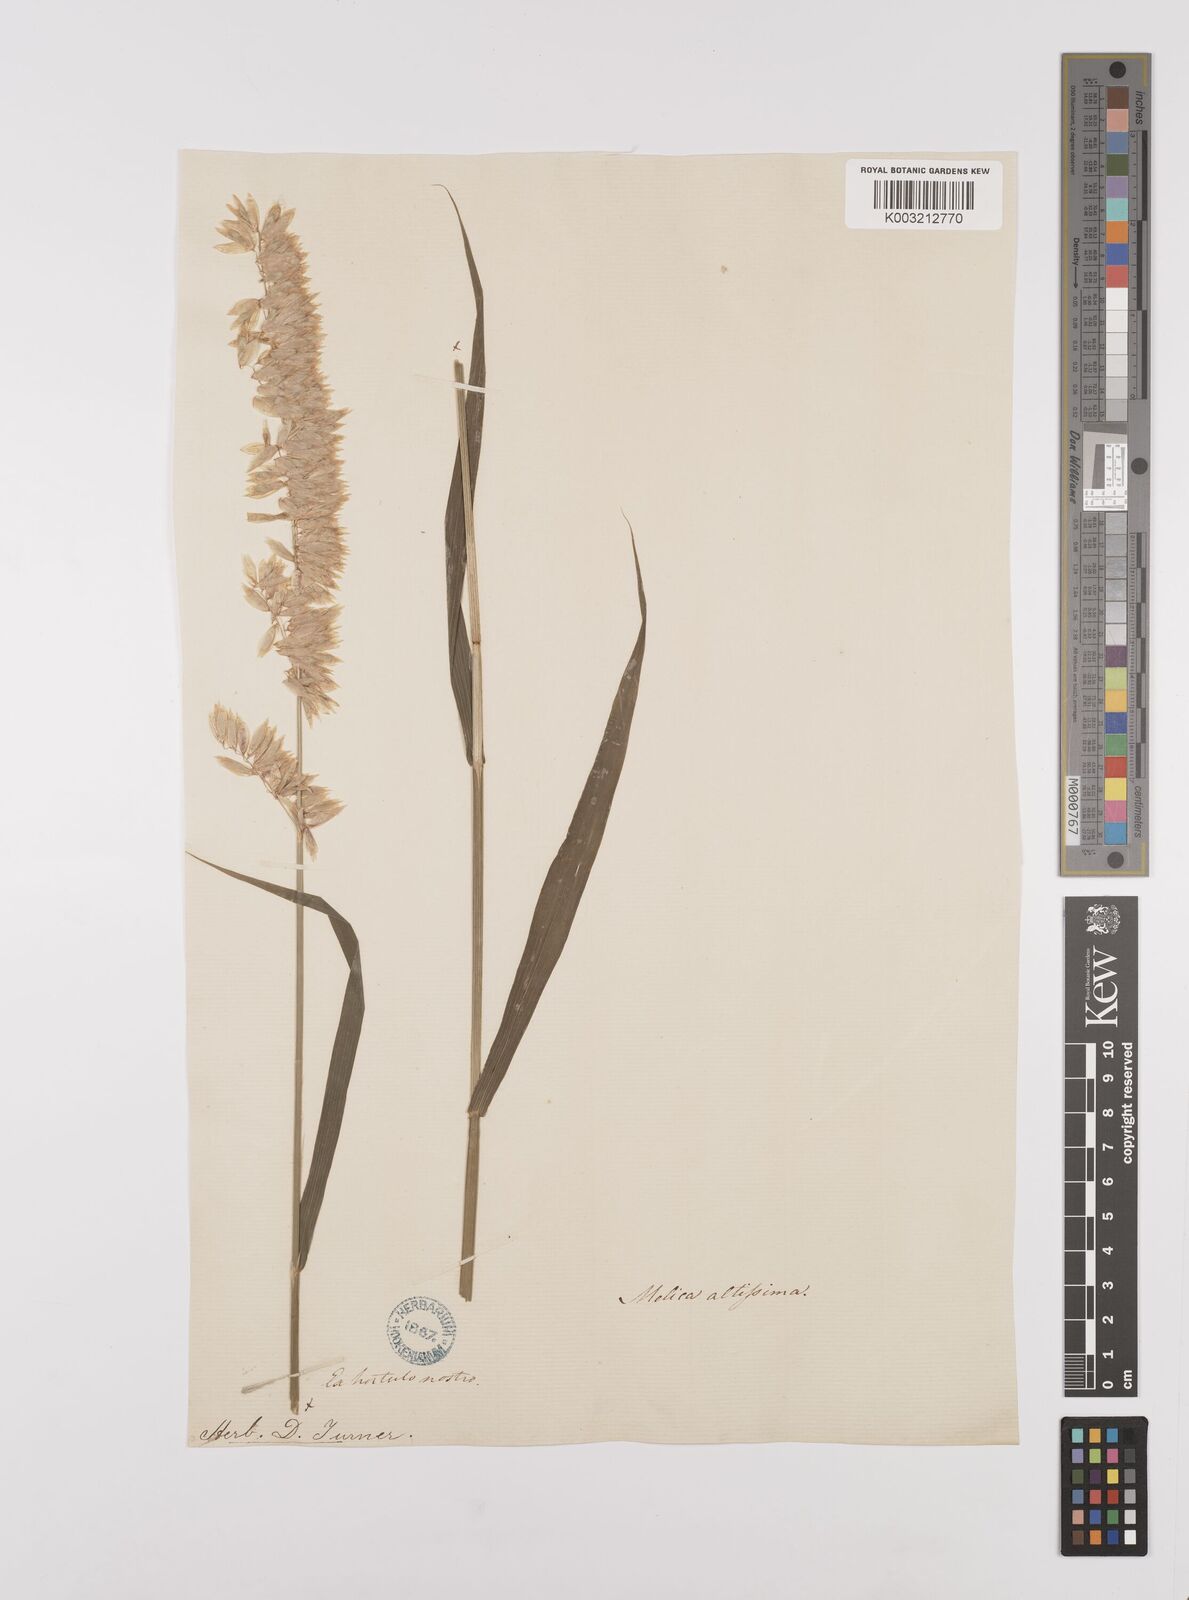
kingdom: Plantae
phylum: Tracheophyta
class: Liliopsida
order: Poales
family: Poaceae
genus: Melica
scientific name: Melica altissima
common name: Siberian melicgrass
